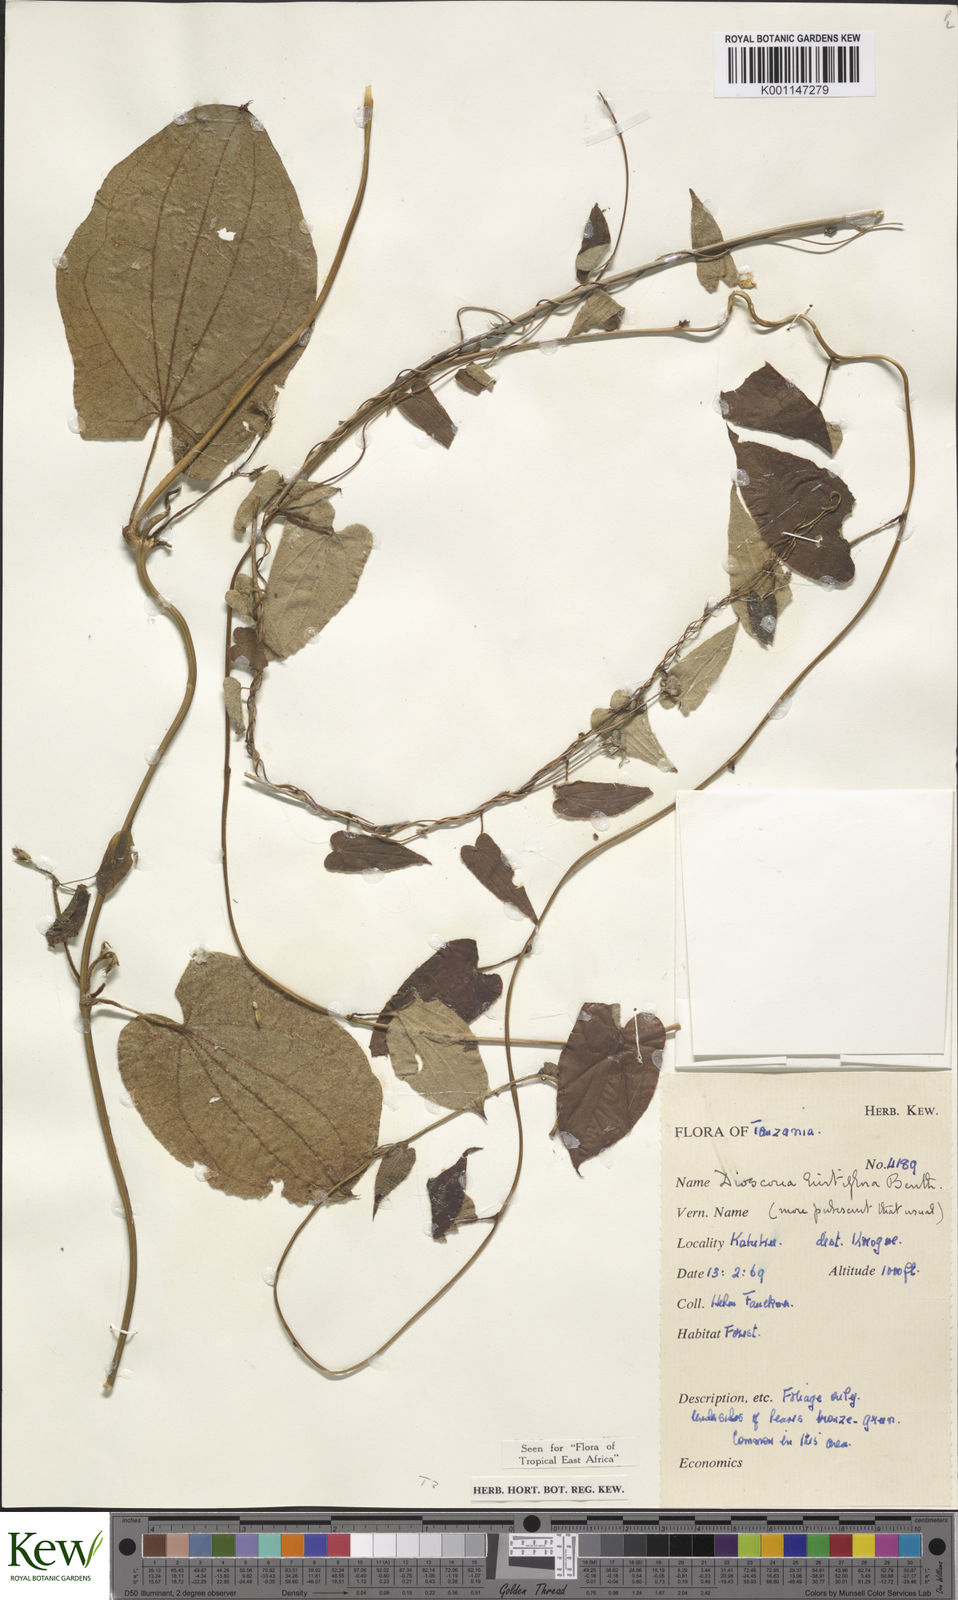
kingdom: Plantae
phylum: Tracheophyta
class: Liliopsida
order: Dioscoreales
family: Dioscoreaceae
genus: Dioscorea
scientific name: Dioscorea hirtiflora
